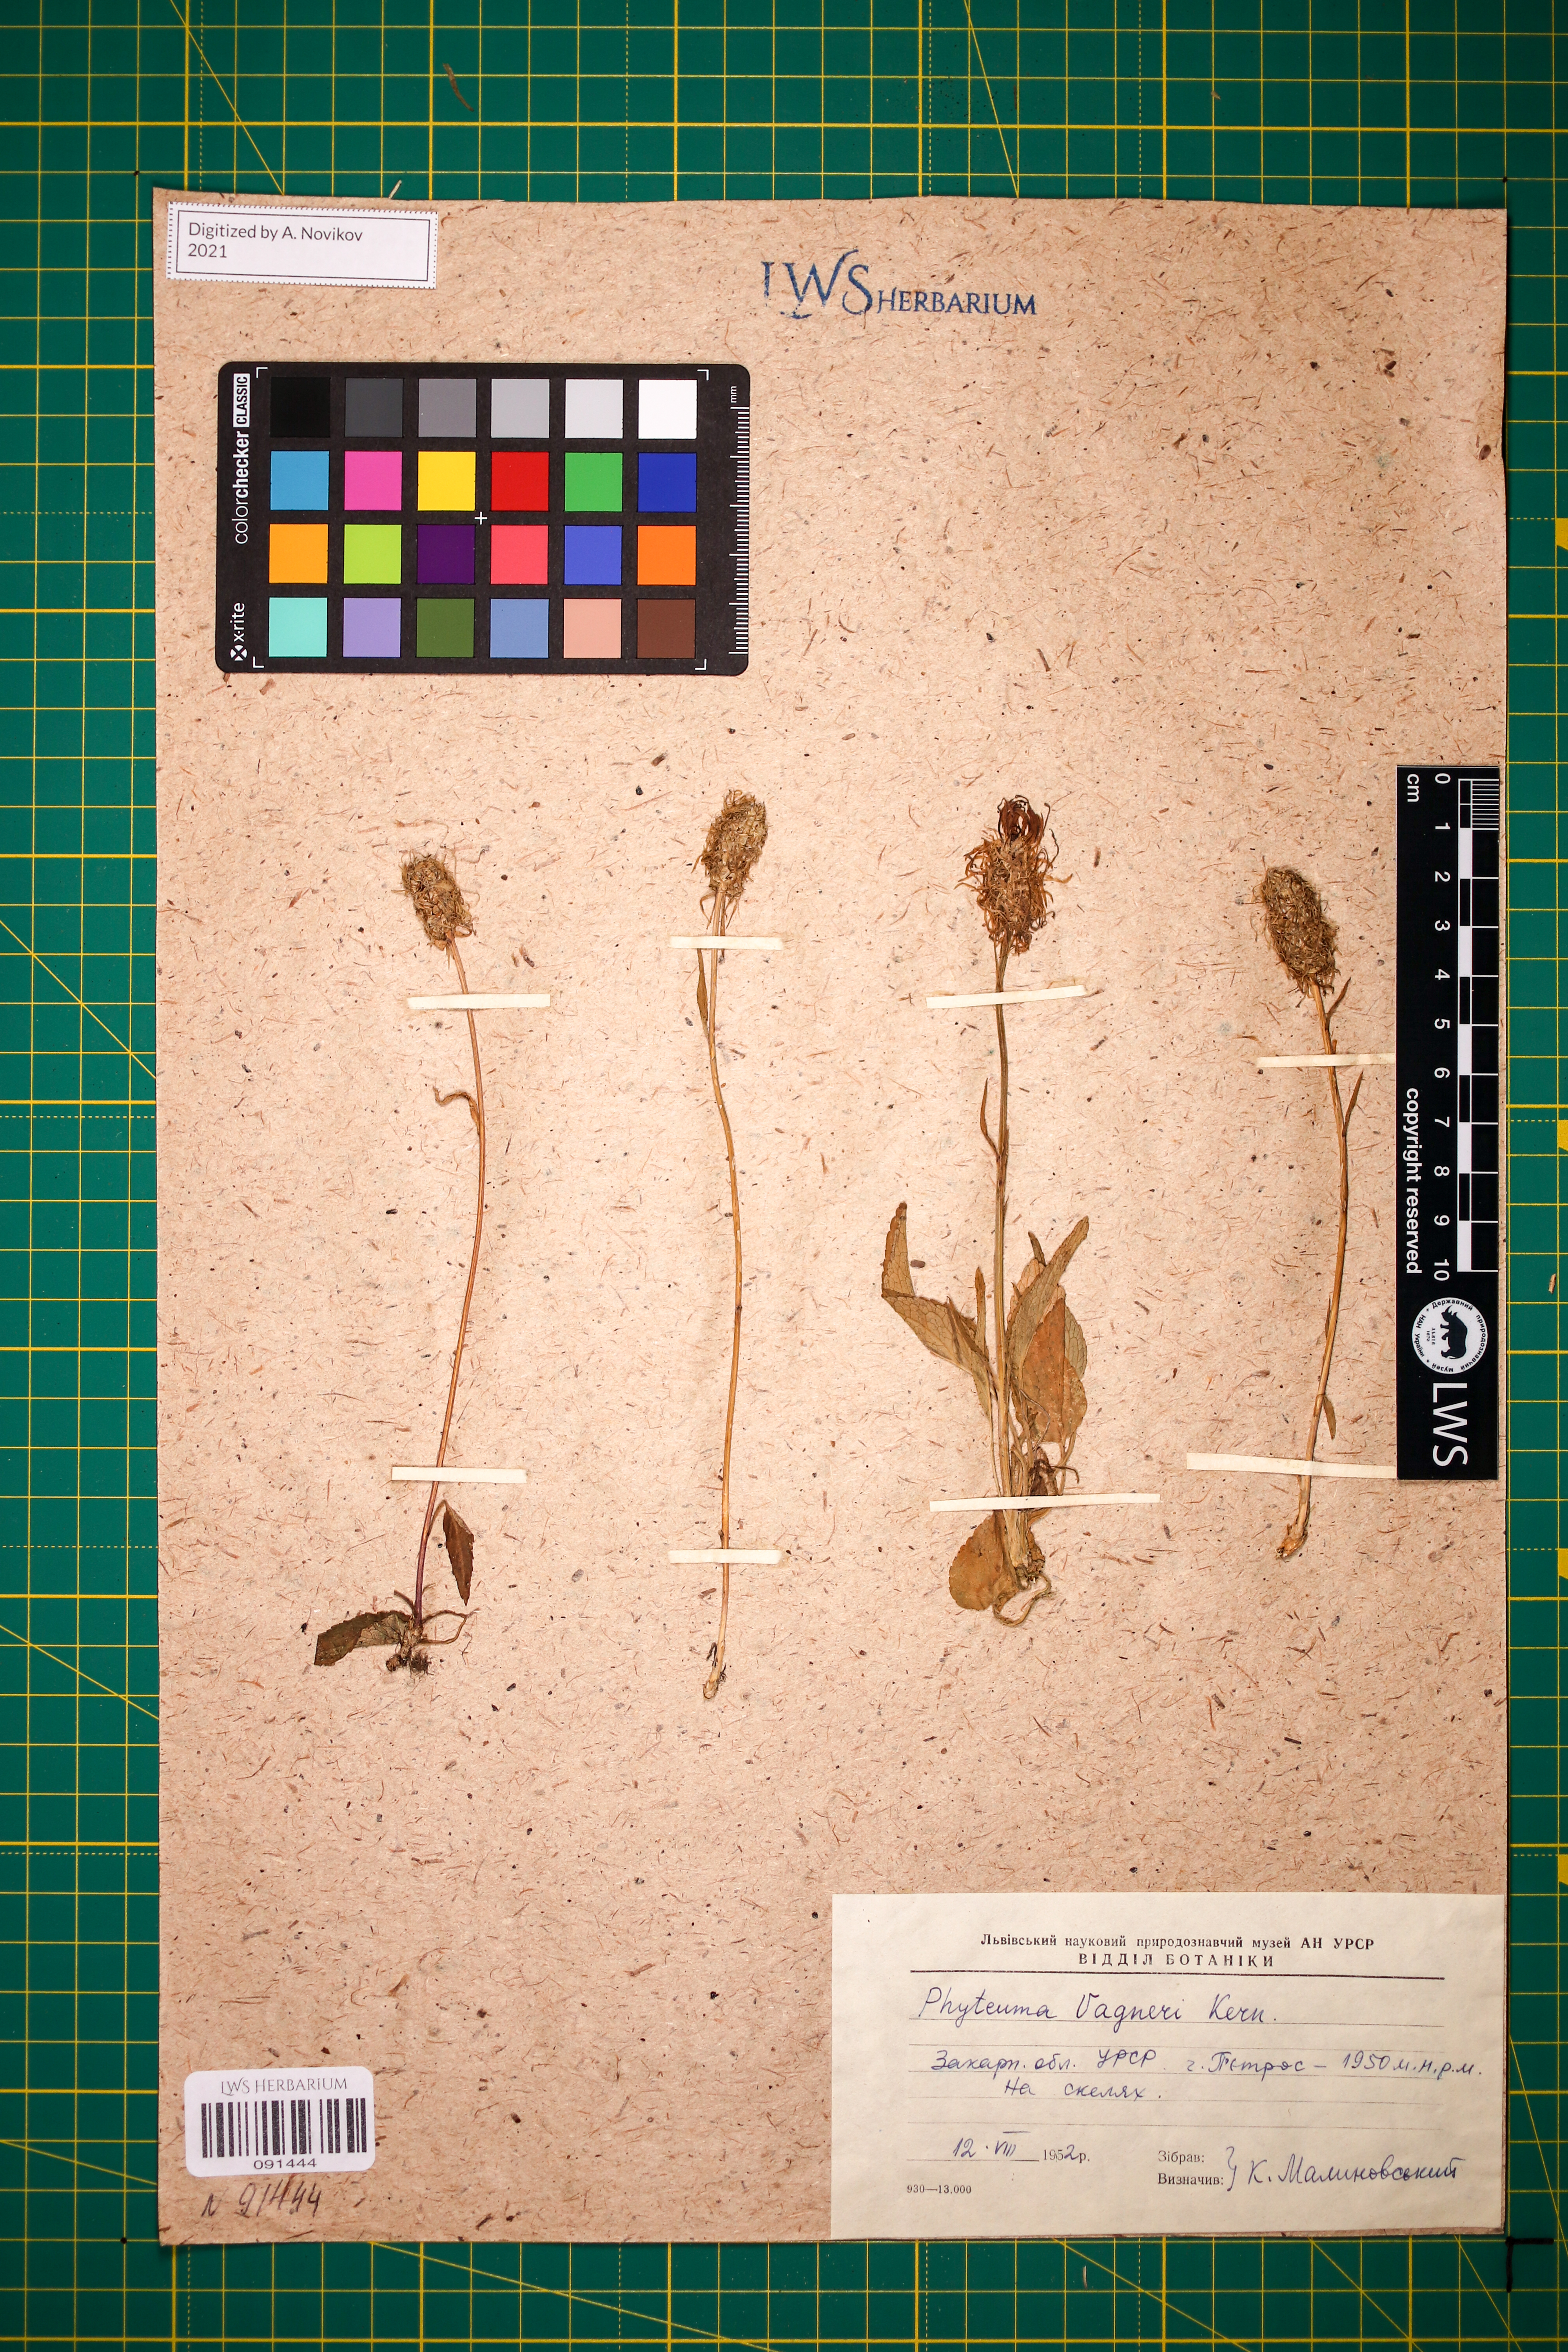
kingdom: Plantae
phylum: Tracheophyta
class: Magnoliopsida
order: Asterales
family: Campanulaceae
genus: Phyteuma
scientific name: Phyteuma vagneri
